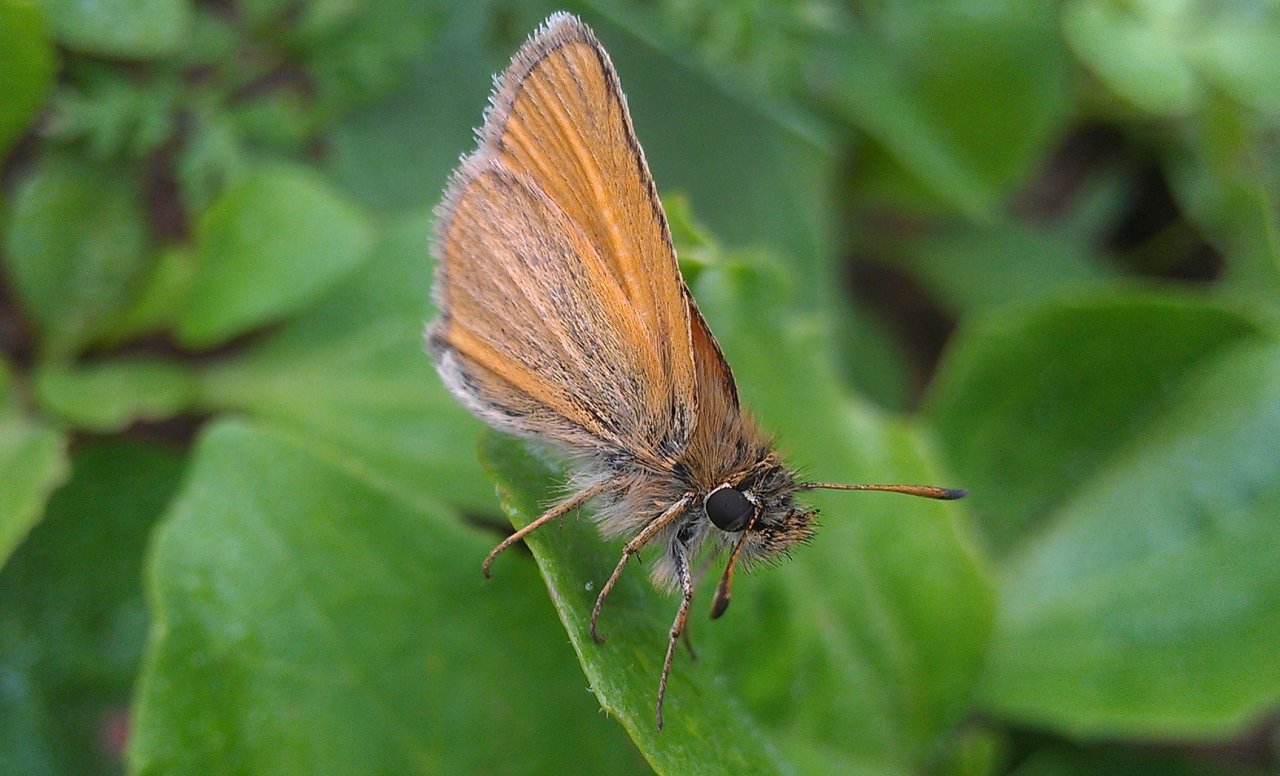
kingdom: Animalia
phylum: Arthropoda
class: Insecta
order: Lepidoptera
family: Hesperiidae
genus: Thymelicus
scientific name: Thymelicus lineola
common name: European Skipper
